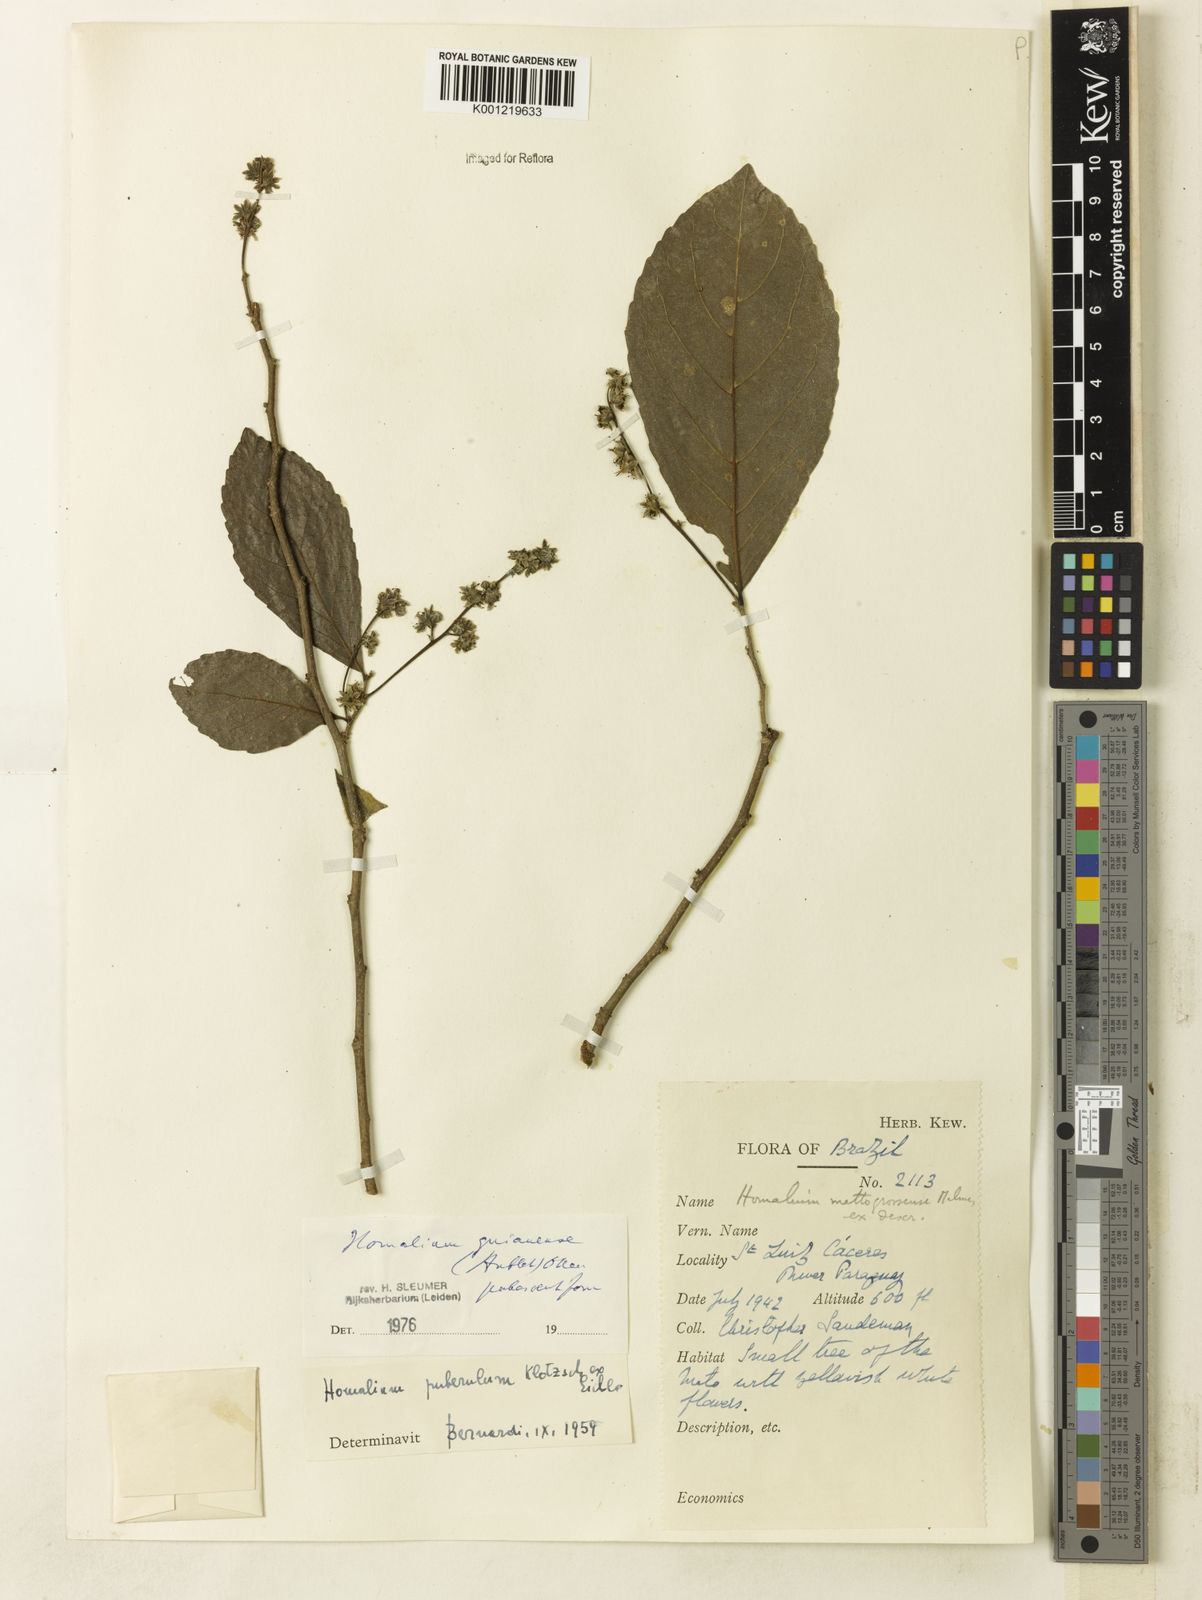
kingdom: Plantae
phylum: Tracheophyta
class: Magnoliopsida
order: Malpighiales
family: Salicaceae
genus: Homalium
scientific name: Homalium guianense
